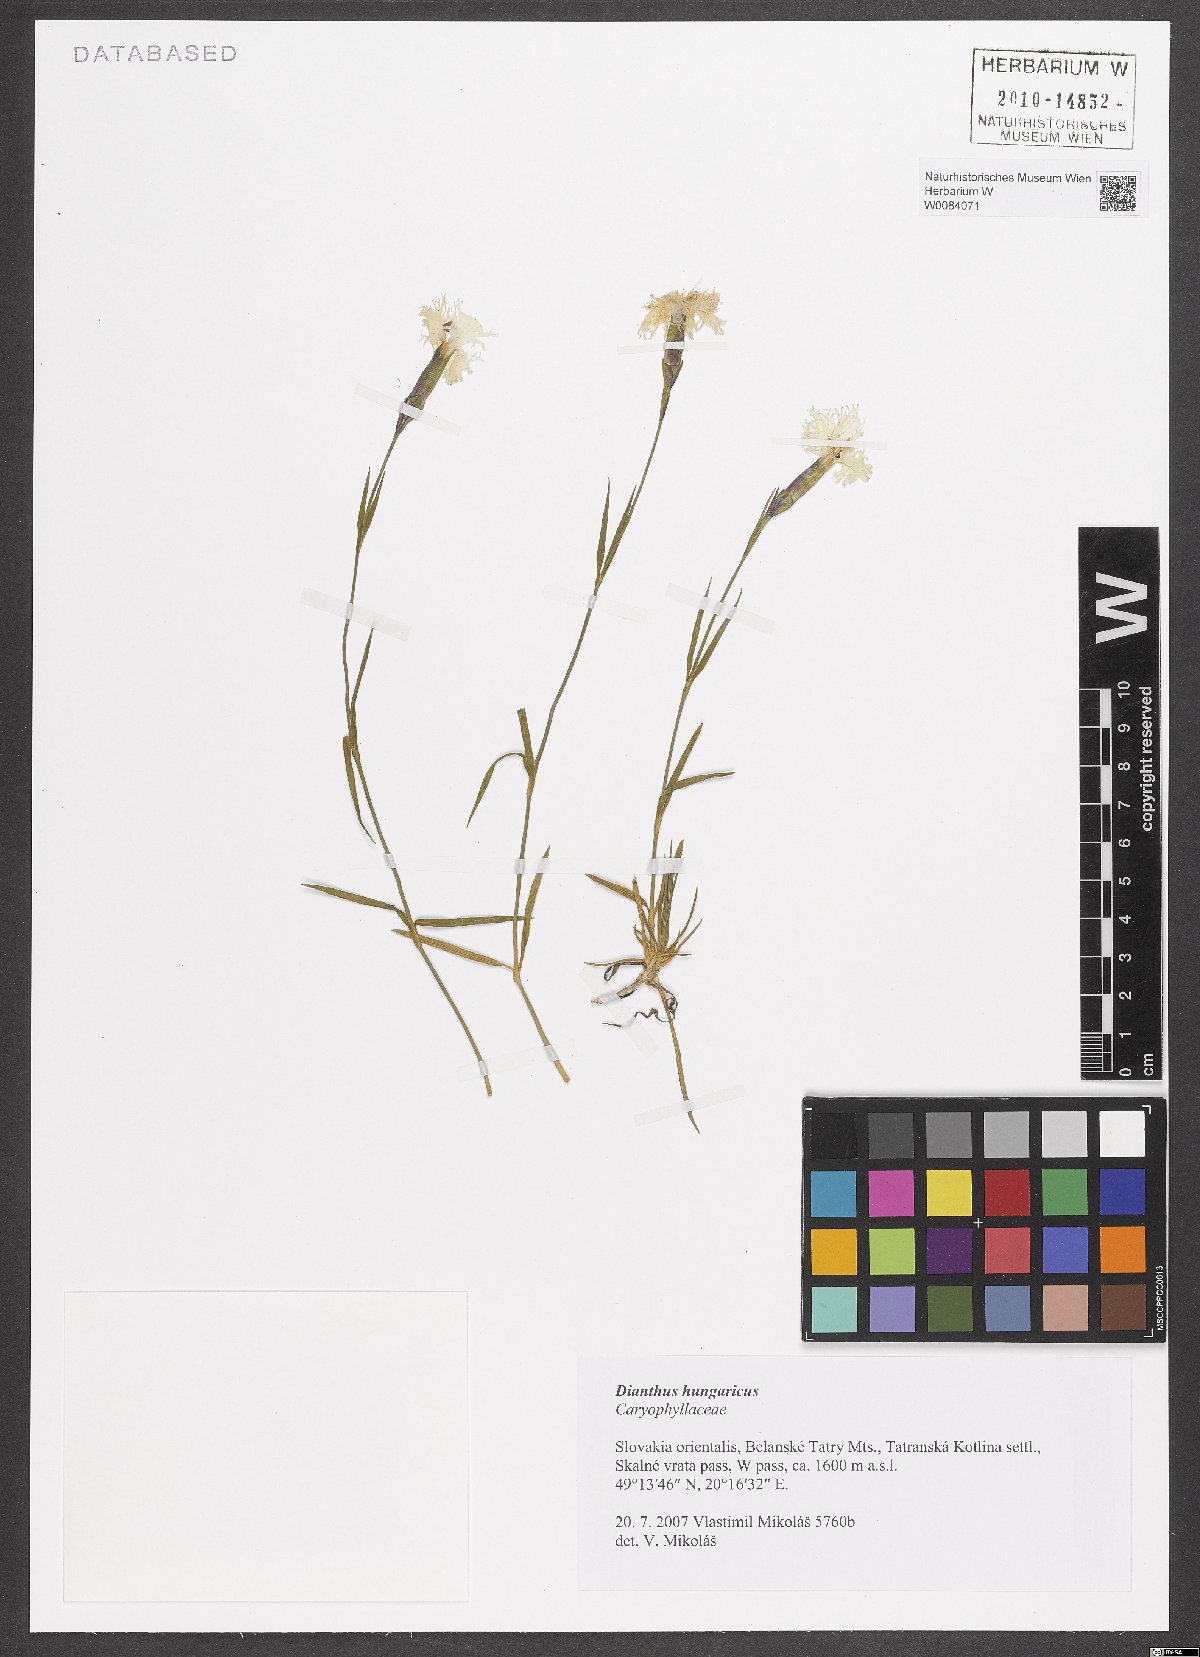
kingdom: Plantae
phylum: Tracheophyta
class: Magnoliopsida
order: Caryophyllales
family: Caryophyllaceae
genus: Dianthus
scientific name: Dianthus plumarius
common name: Pink
